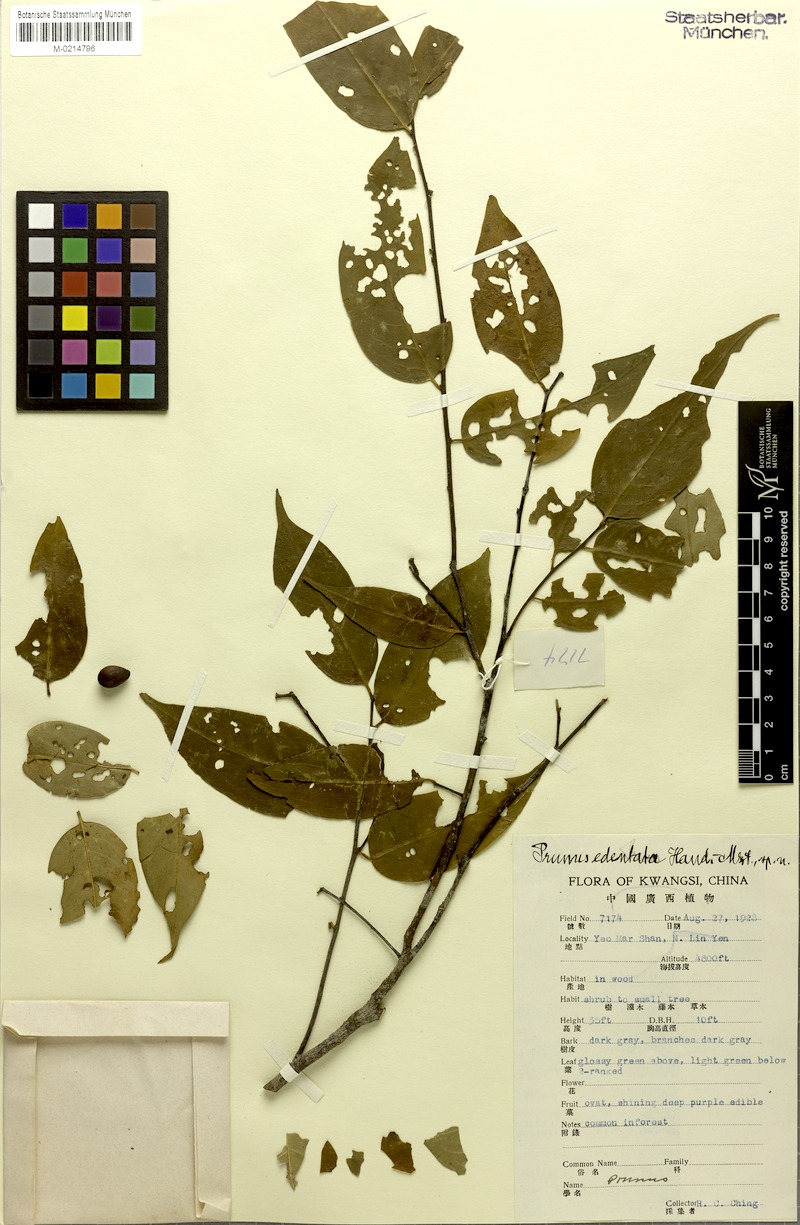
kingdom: Plantae
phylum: Tracheophyta
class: Magnoliopsida
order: Rosales
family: Rosaceae
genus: Prunus
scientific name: Prunus phaeosticta
